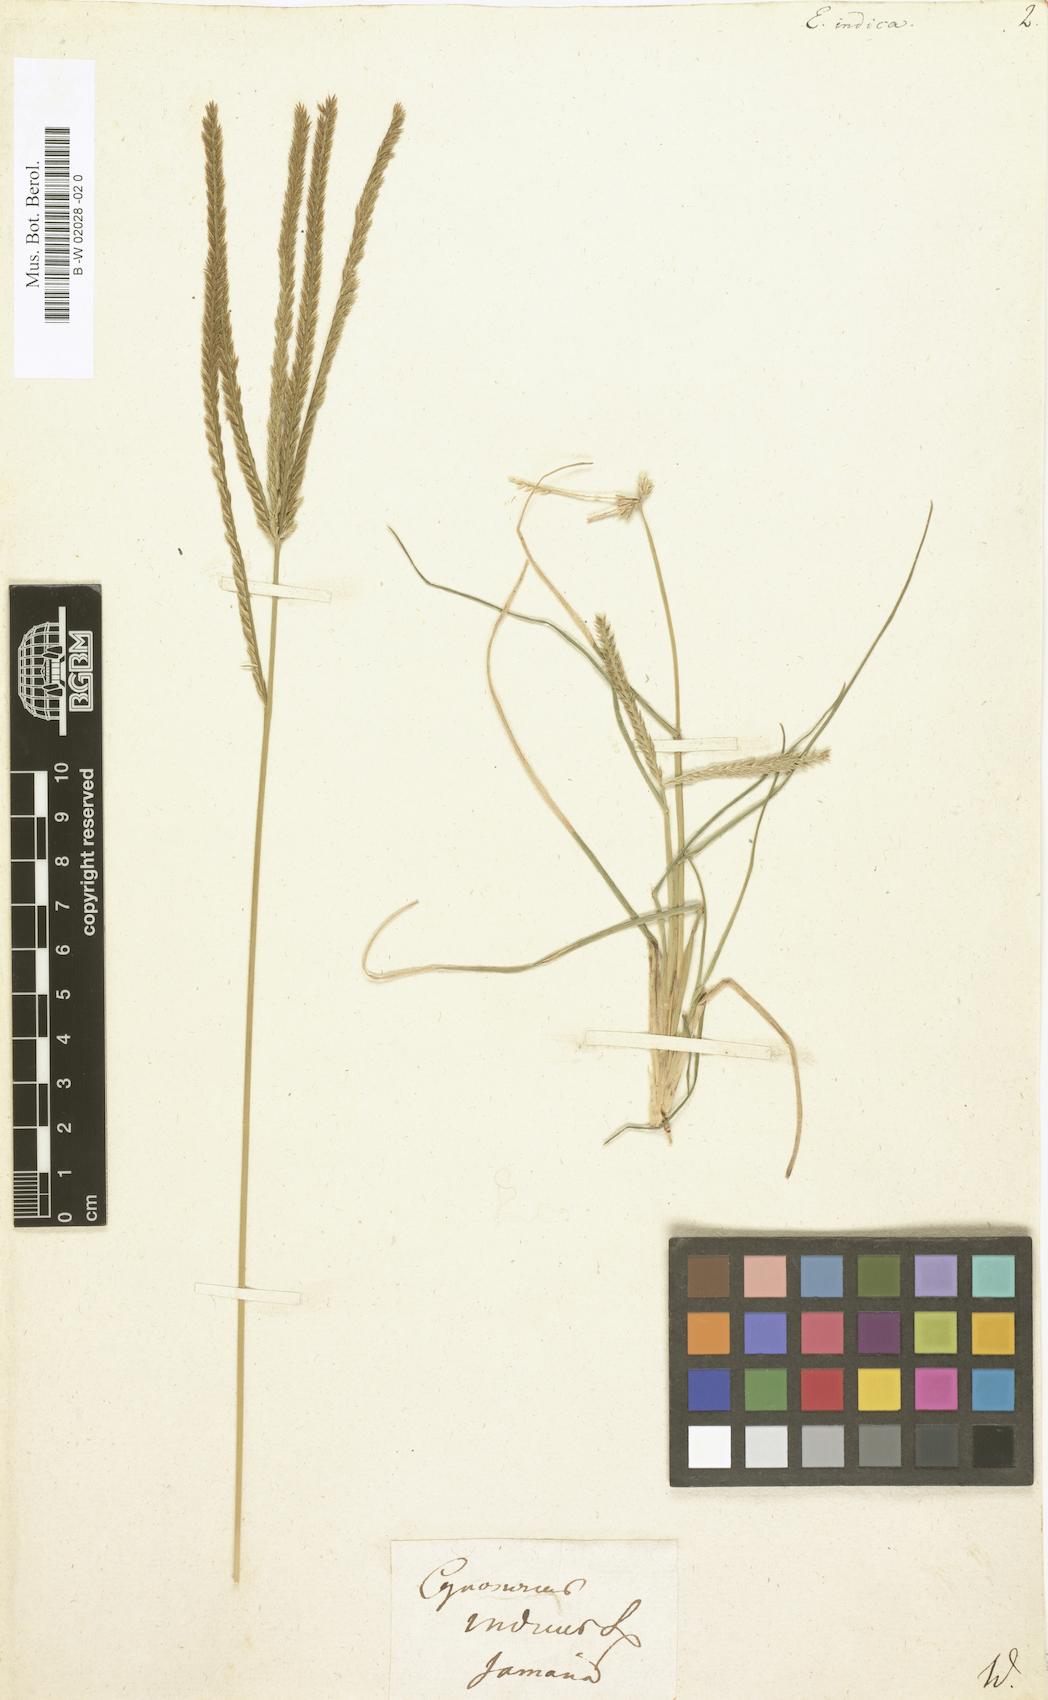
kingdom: Plantae
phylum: Tracheophyta
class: Liliopsida
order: Poales
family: Poaceae
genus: Eleusine
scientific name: Eleusine indica
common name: Yard-grass
